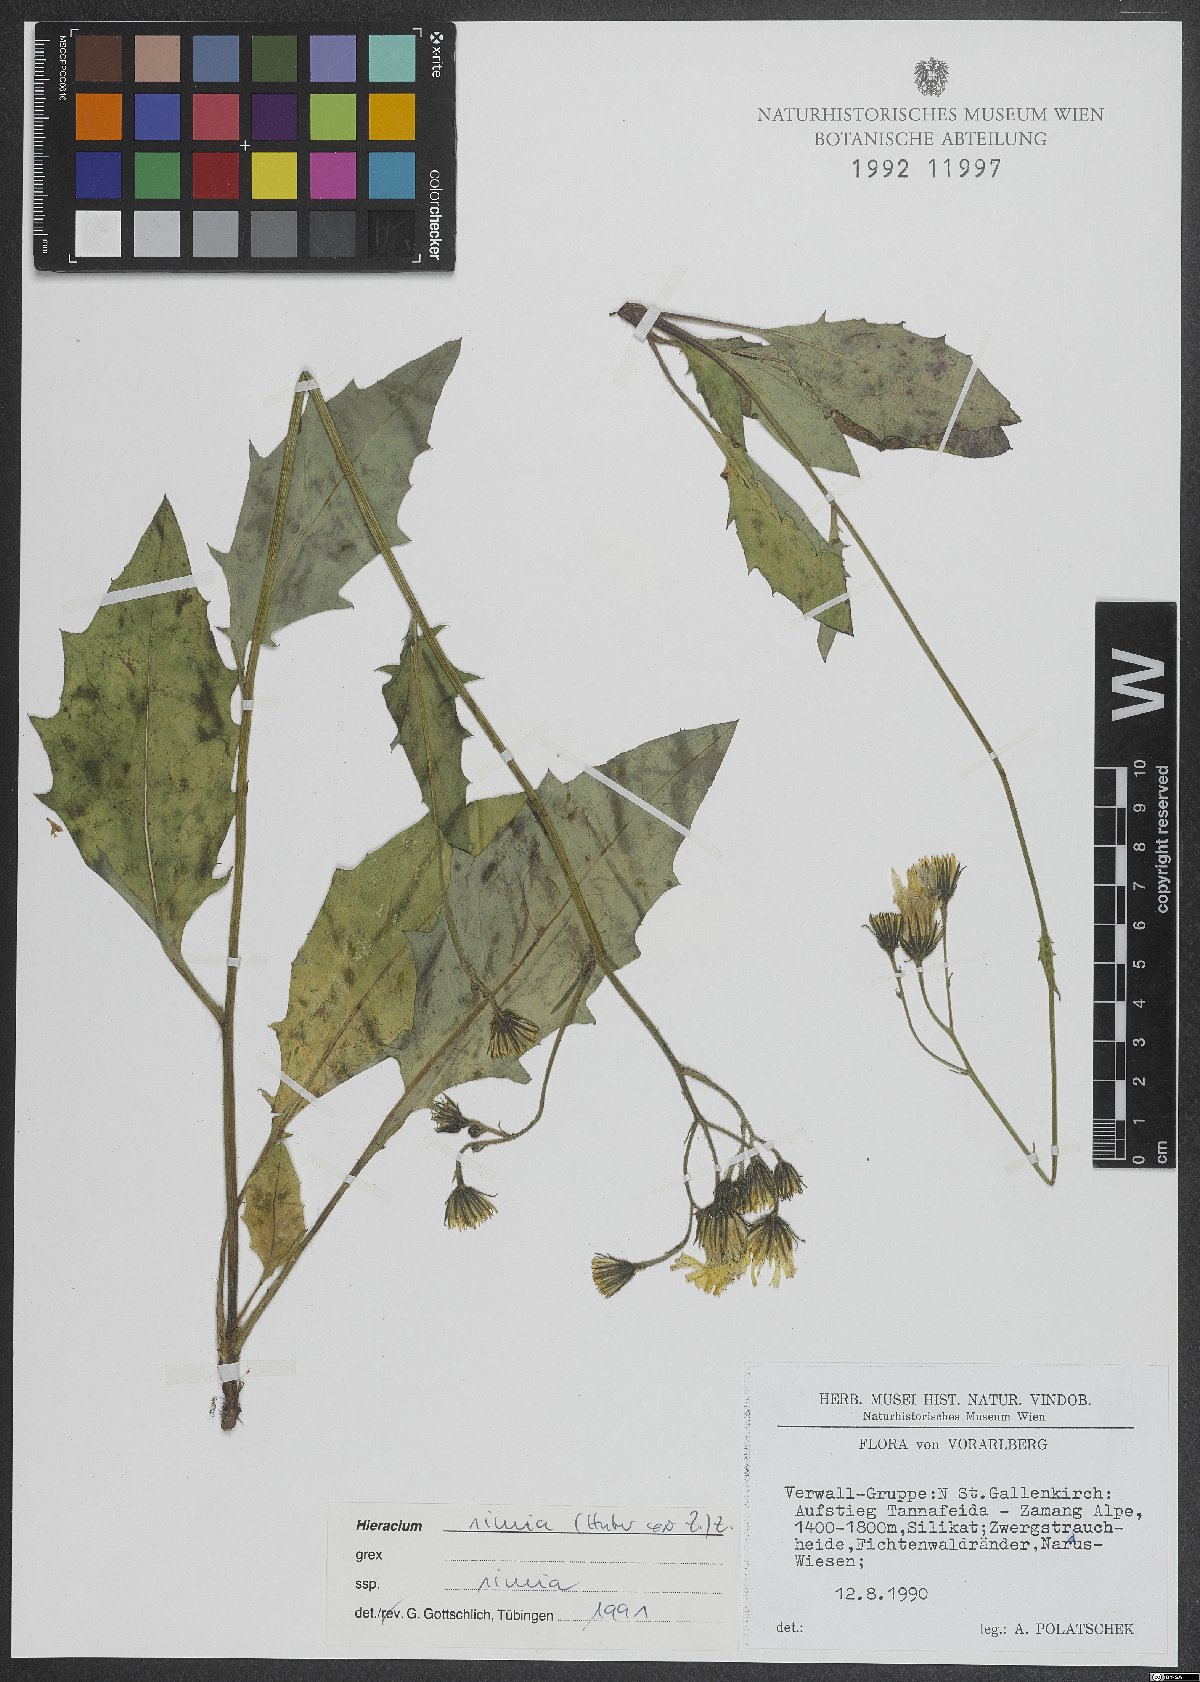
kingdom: Plantae
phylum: Tracheophyta
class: Magnoliopsida
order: Asterales
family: Asteraceae
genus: Hieracium
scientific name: Hieracium simia
